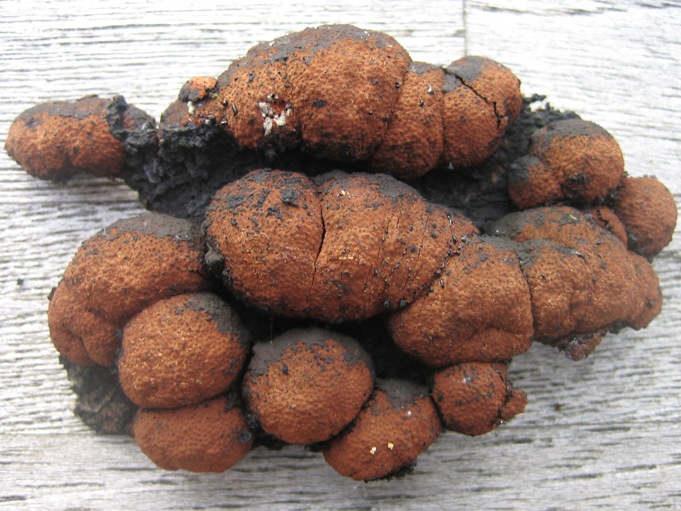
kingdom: Fungi
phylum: Ascomycota
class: Sordariomycetes
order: Xylariales
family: Hypoxylaceae
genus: Hypoxylon
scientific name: Hypoxylon fragiforme
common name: kuljordbær
